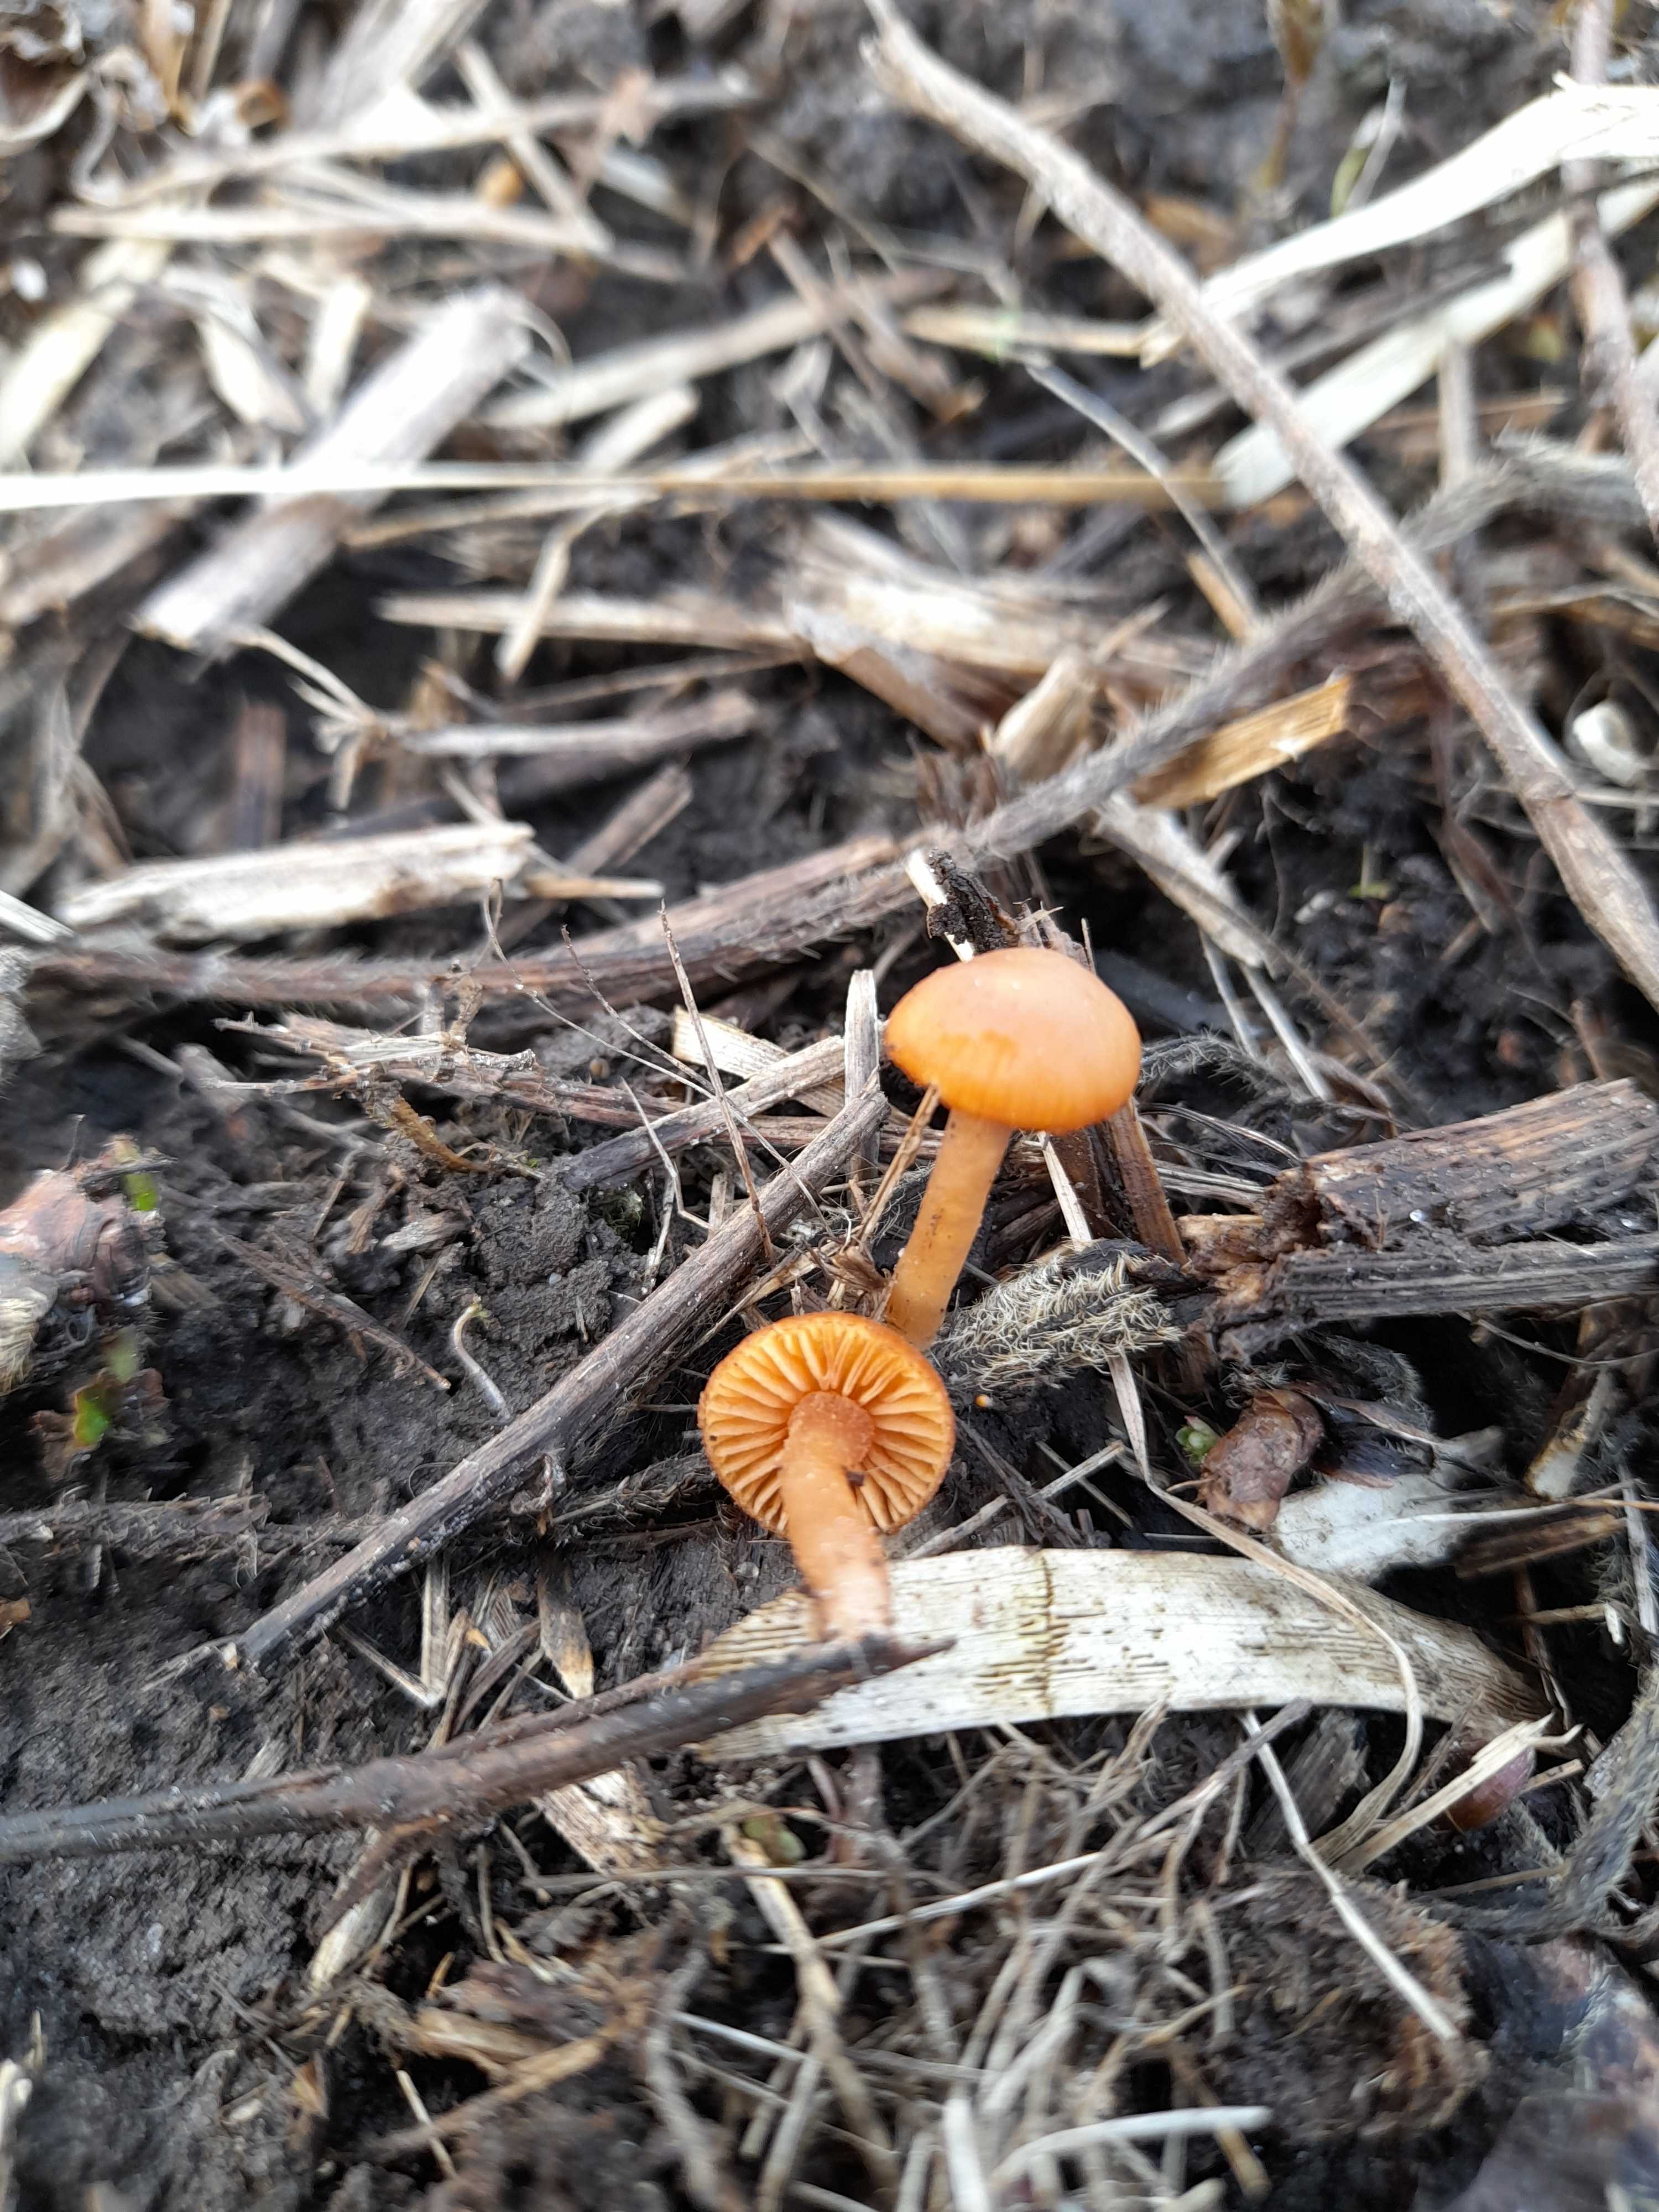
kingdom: Fungi
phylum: Basidiomycota
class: Agaricomycetes
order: Agaricales
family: Tubariaceae
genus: Tubaria
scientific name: Tubaria furfuracea
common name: kliddet fnughat
